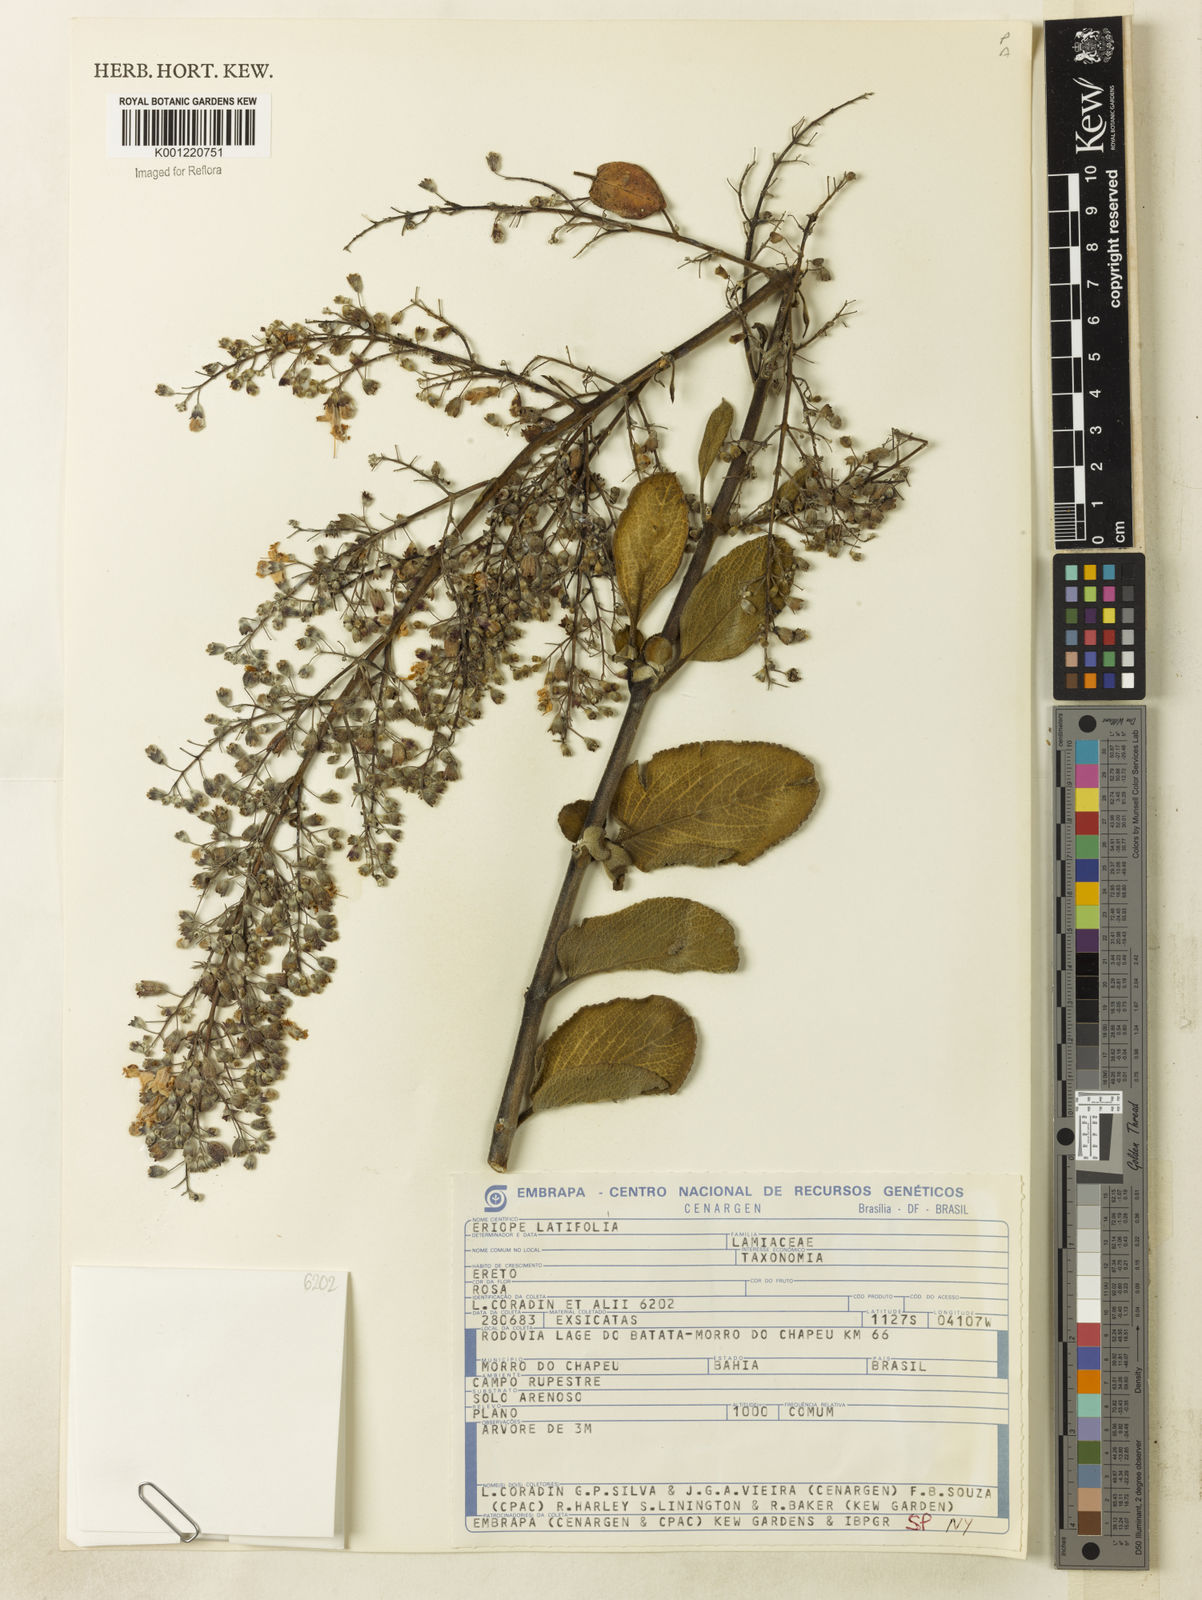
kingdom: Plantae
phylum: Tracheophyta
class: Magnoliopsida
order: Lamiales
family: Lamiaceae
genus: Eriope
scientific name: Eriope latifolia
